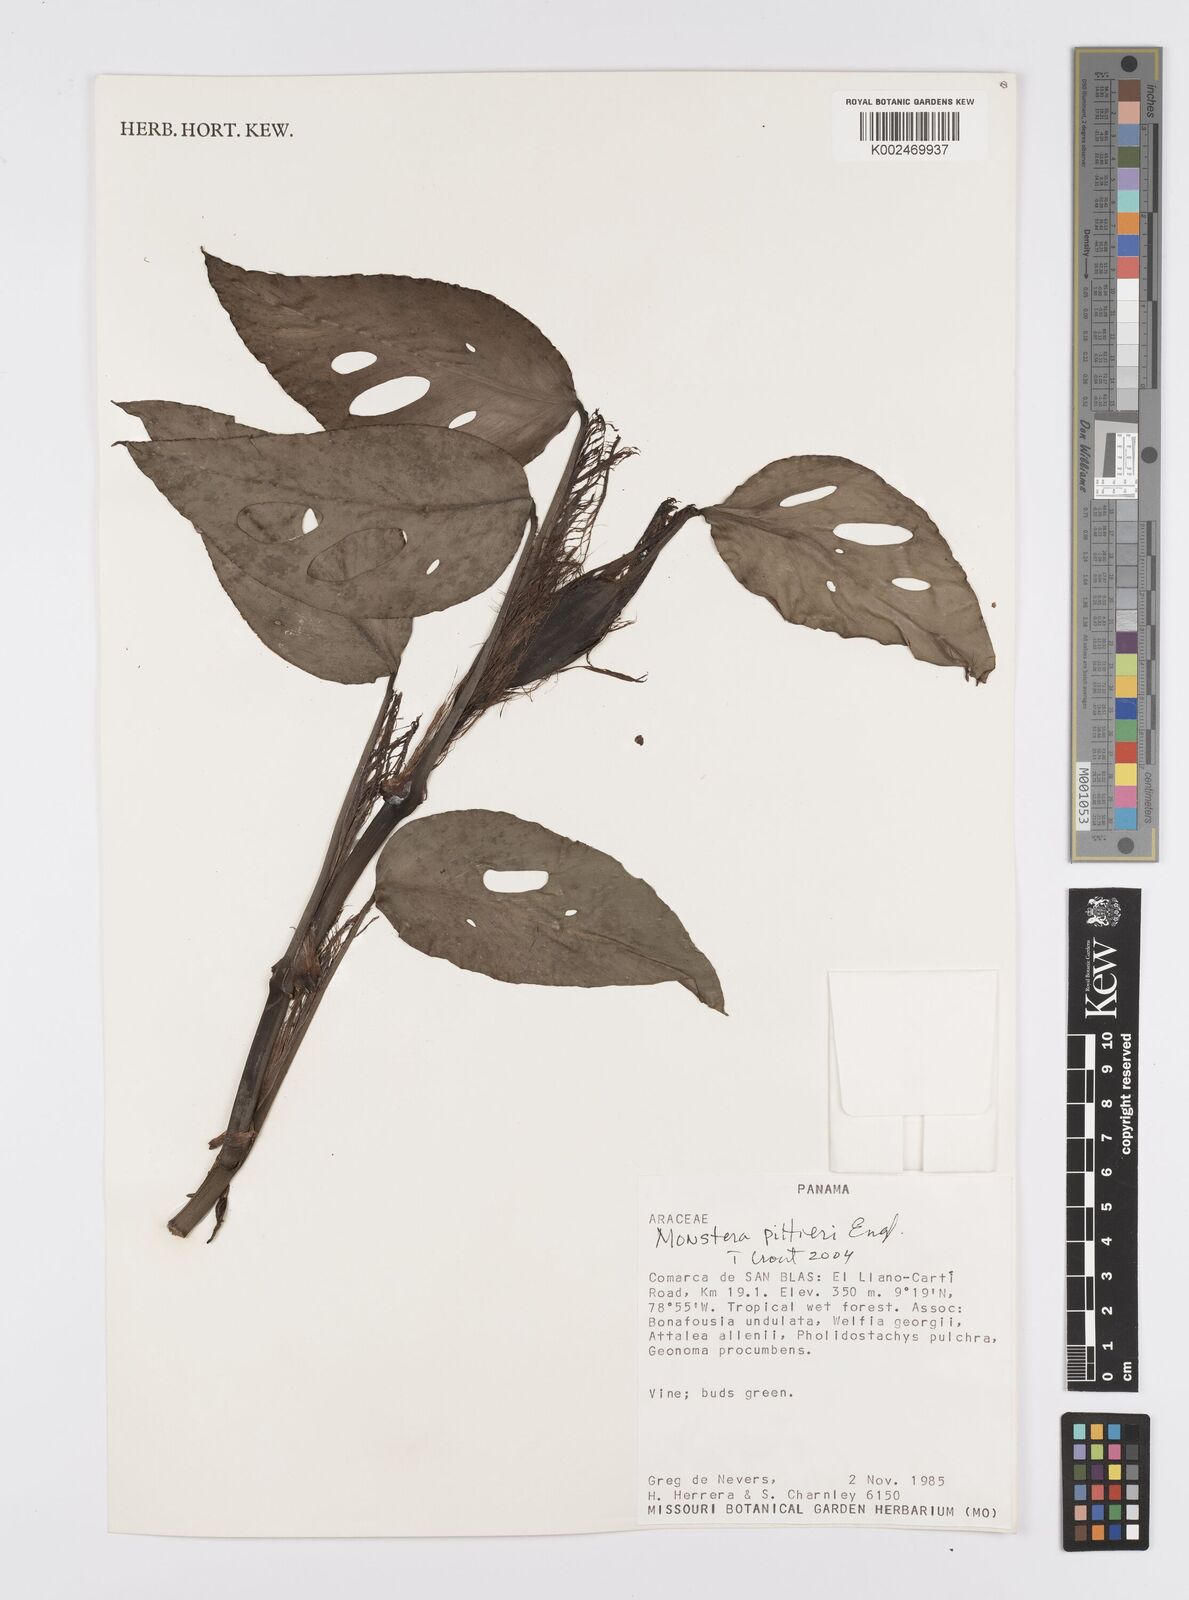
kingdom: Plantae
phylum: Tracheophyta
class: Liliopsida
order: Alismatales
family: Araceae
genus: Monstera
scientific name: Monstera pittieri
